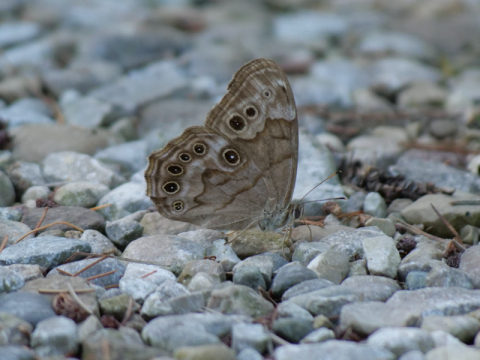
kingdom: Animalia
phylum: Arthropoda
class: Insecta
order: Lepidoptera
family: Nymphalidae
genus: Lethe
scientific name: Lethe anthedon
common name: Northern Pearly-Eye
